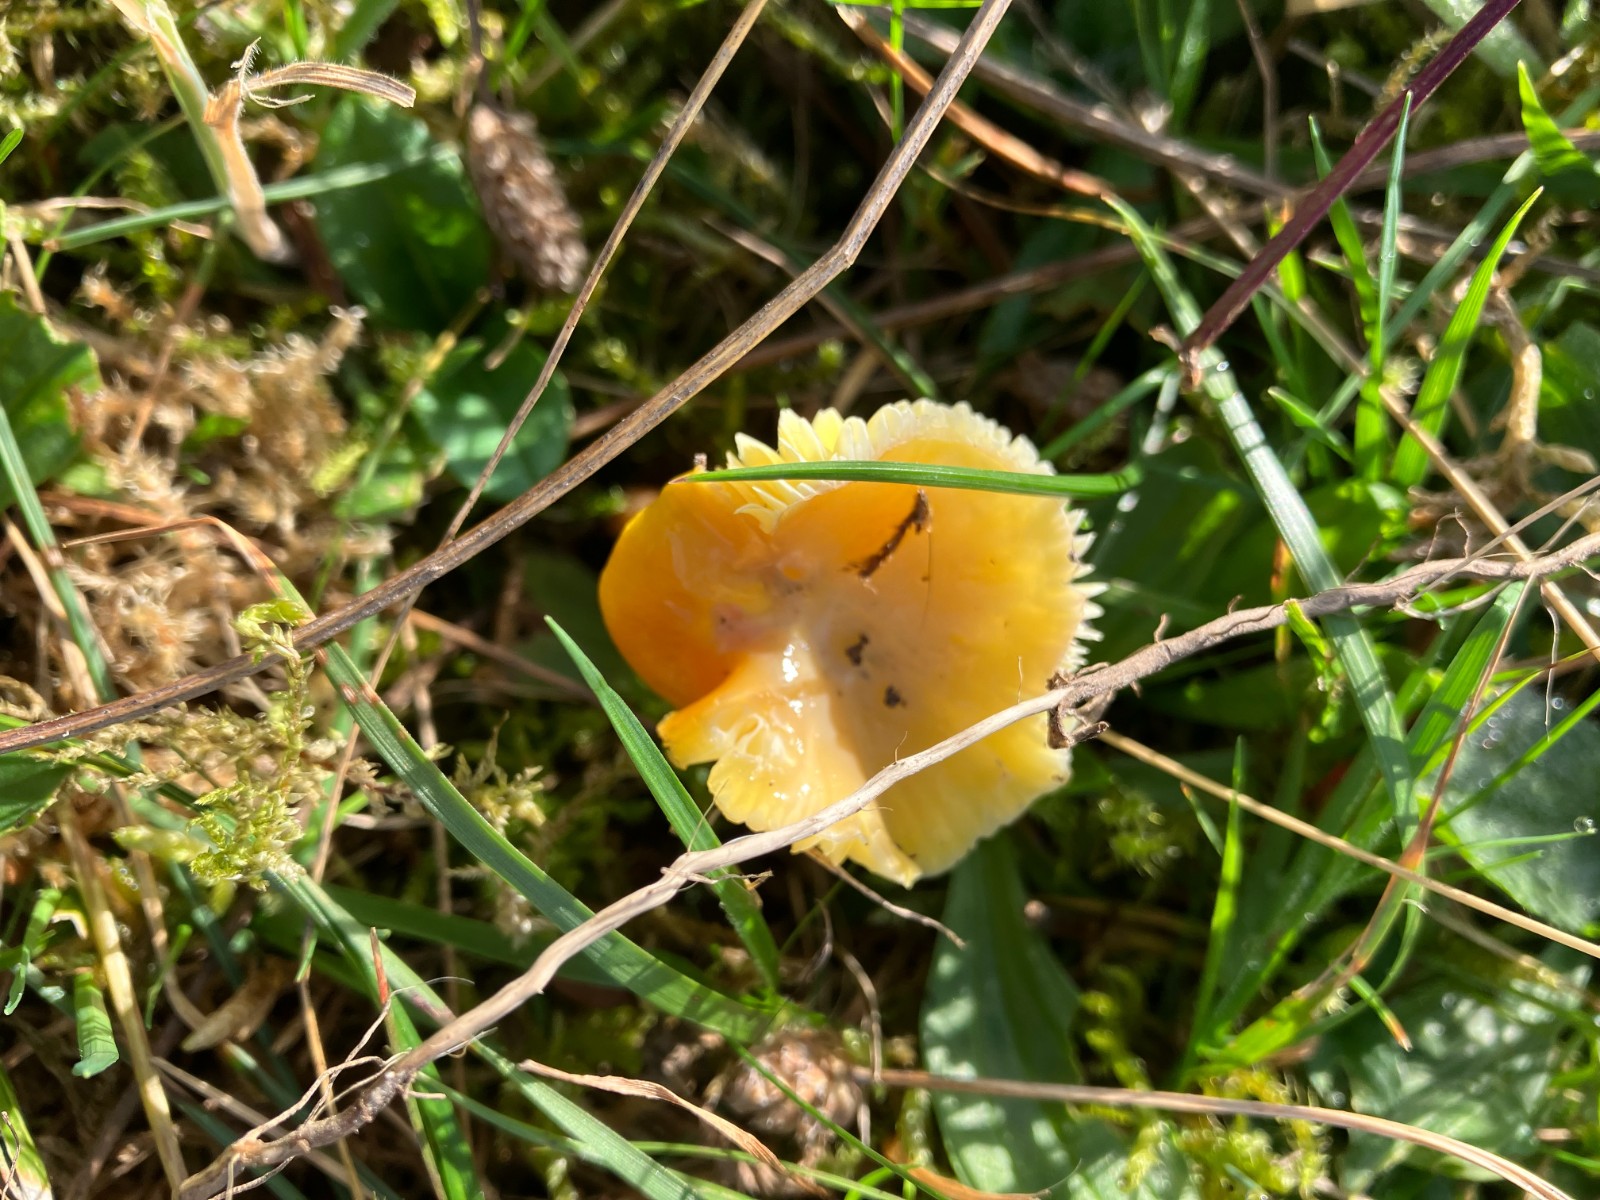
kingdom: Fungi
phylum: Basidiomycota
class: Agaricomycetes
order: Agaricales
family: Hygrophoraceae
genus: Hygrocybe
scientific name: Hygrocybe chlorophana
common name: gul vokshat
